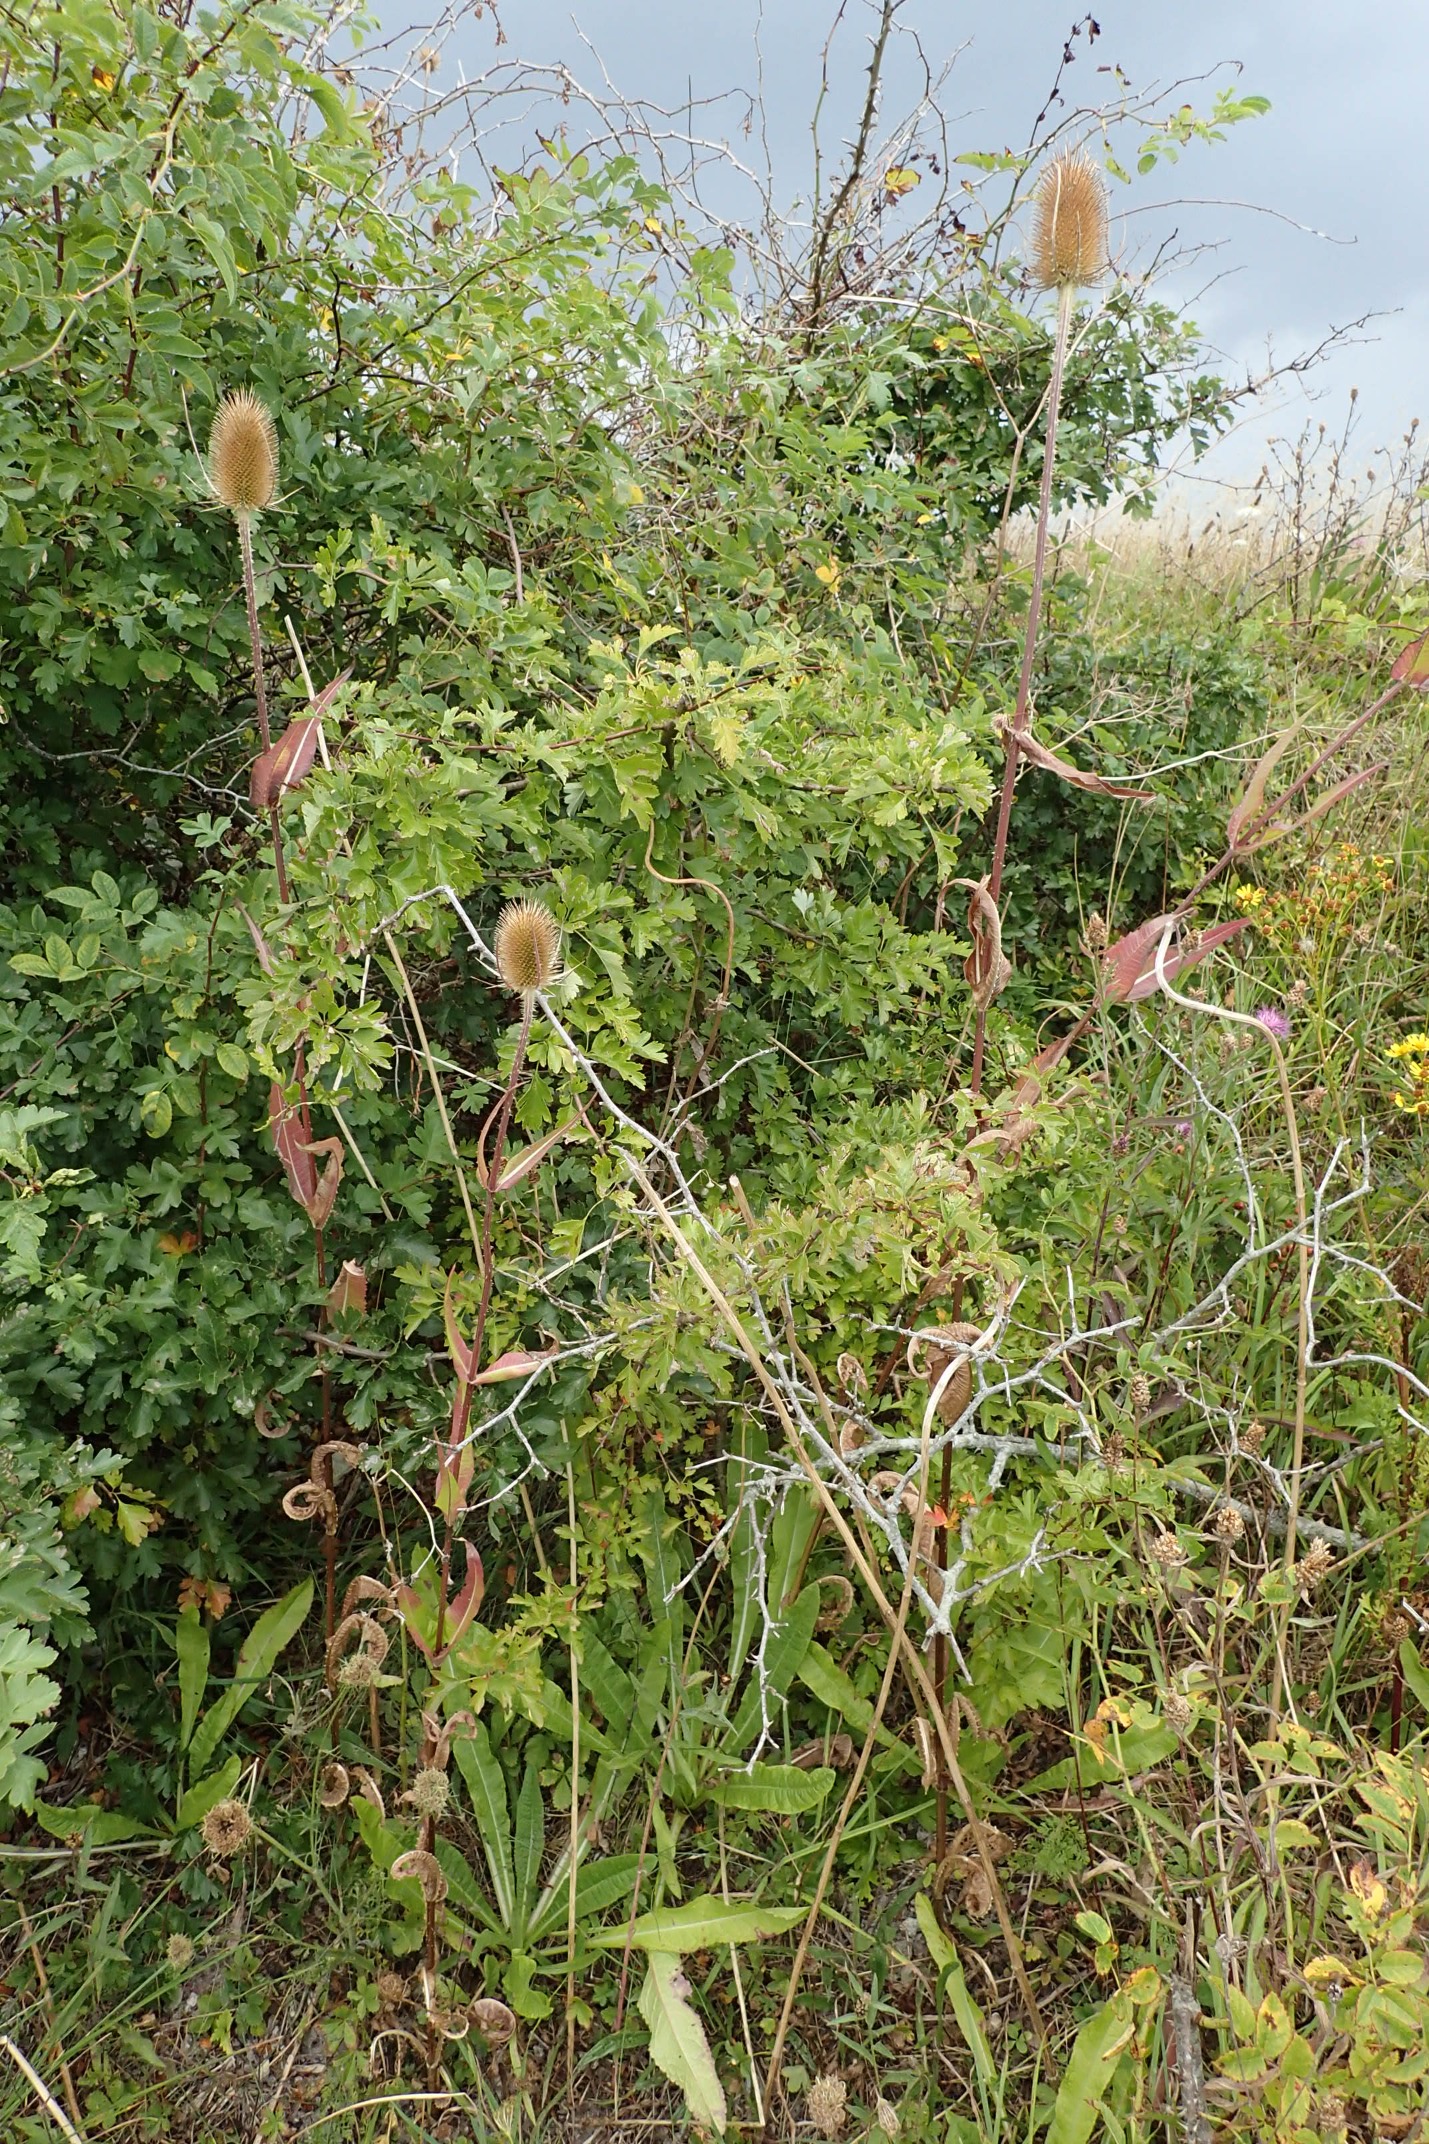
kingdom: Plantae
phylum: Tracheophyta
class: Magnoliopsida
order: Dipsacales
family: Caprifoliaceae
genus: Dipsacus
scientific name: Dipsacus fullonum
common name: Gærde-kartebolle
